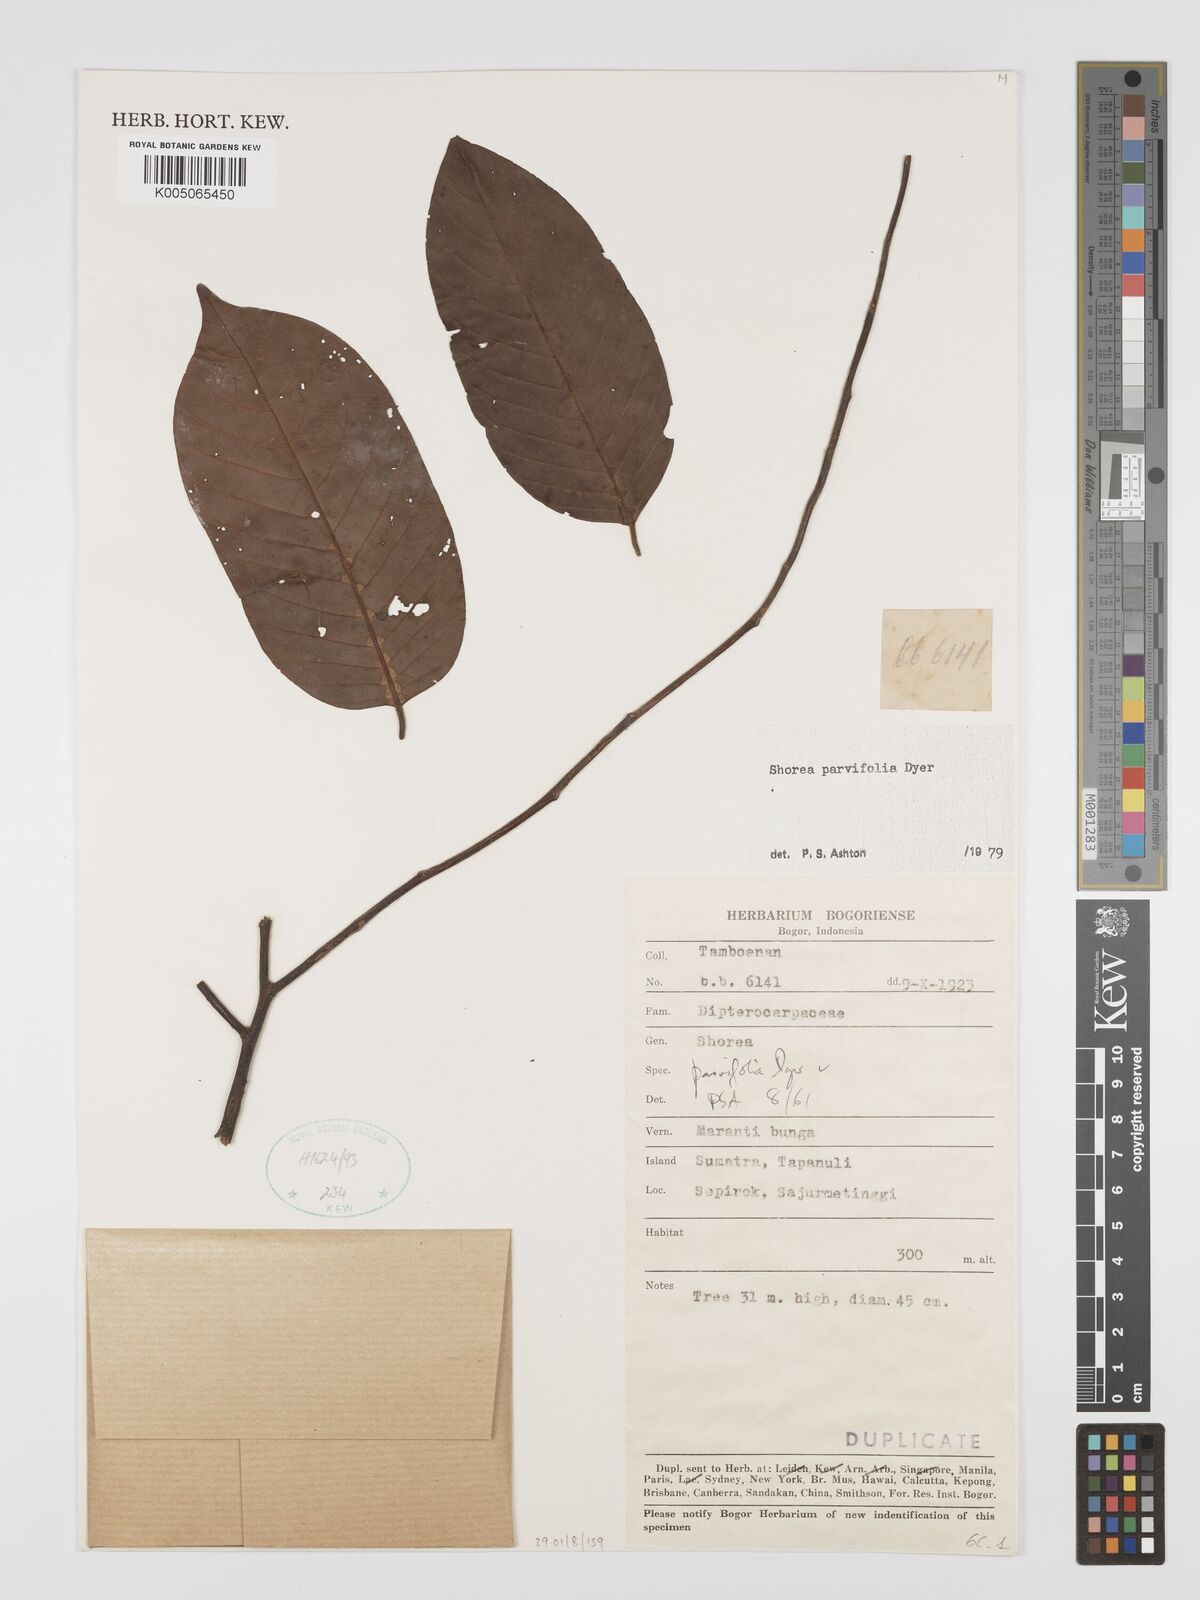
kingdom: Plantae
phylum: Tracheophyta
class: Magnoliopsida
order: Malvales
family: Dipterocarpaceae
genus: Shorea
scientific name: Shorea parvifolia
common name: Light red meranti
